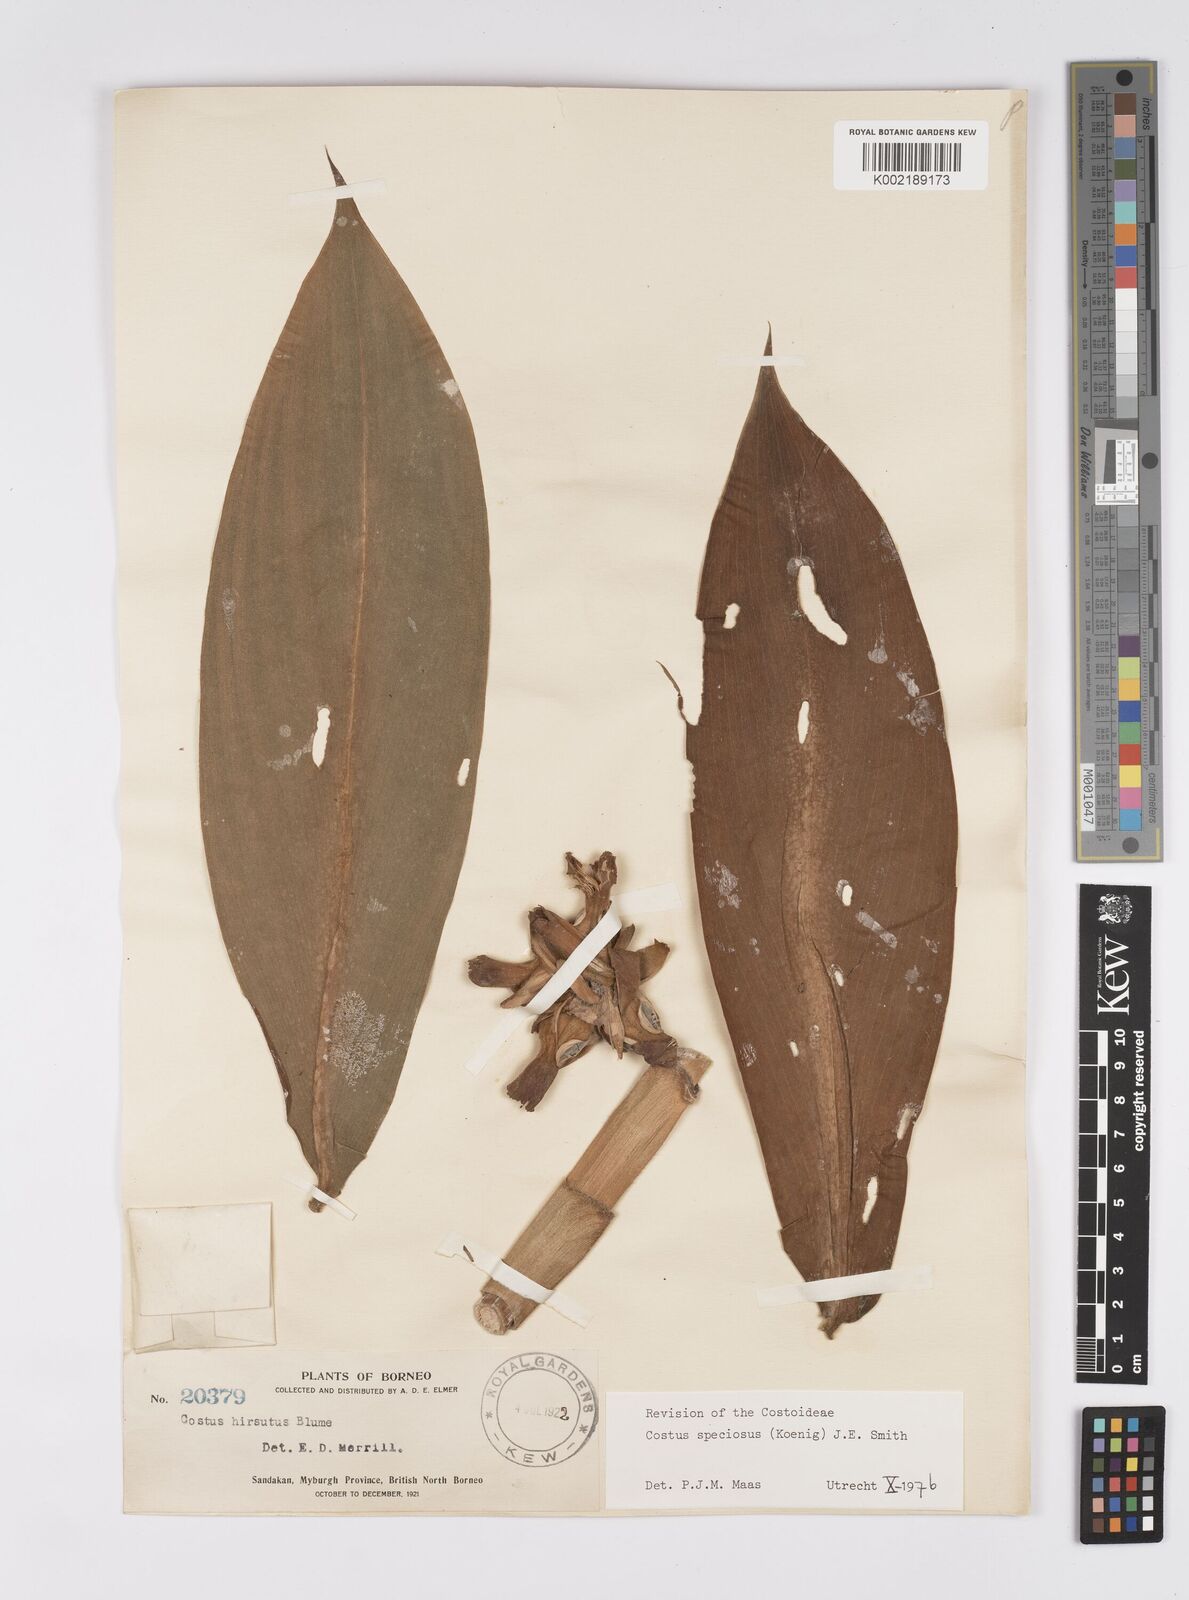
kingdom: Plantae
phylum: Tracheophyta
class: Liliopsida
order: Zingiberales
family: Costaceae
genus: Hellenia
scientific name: Hellenia speciosa
